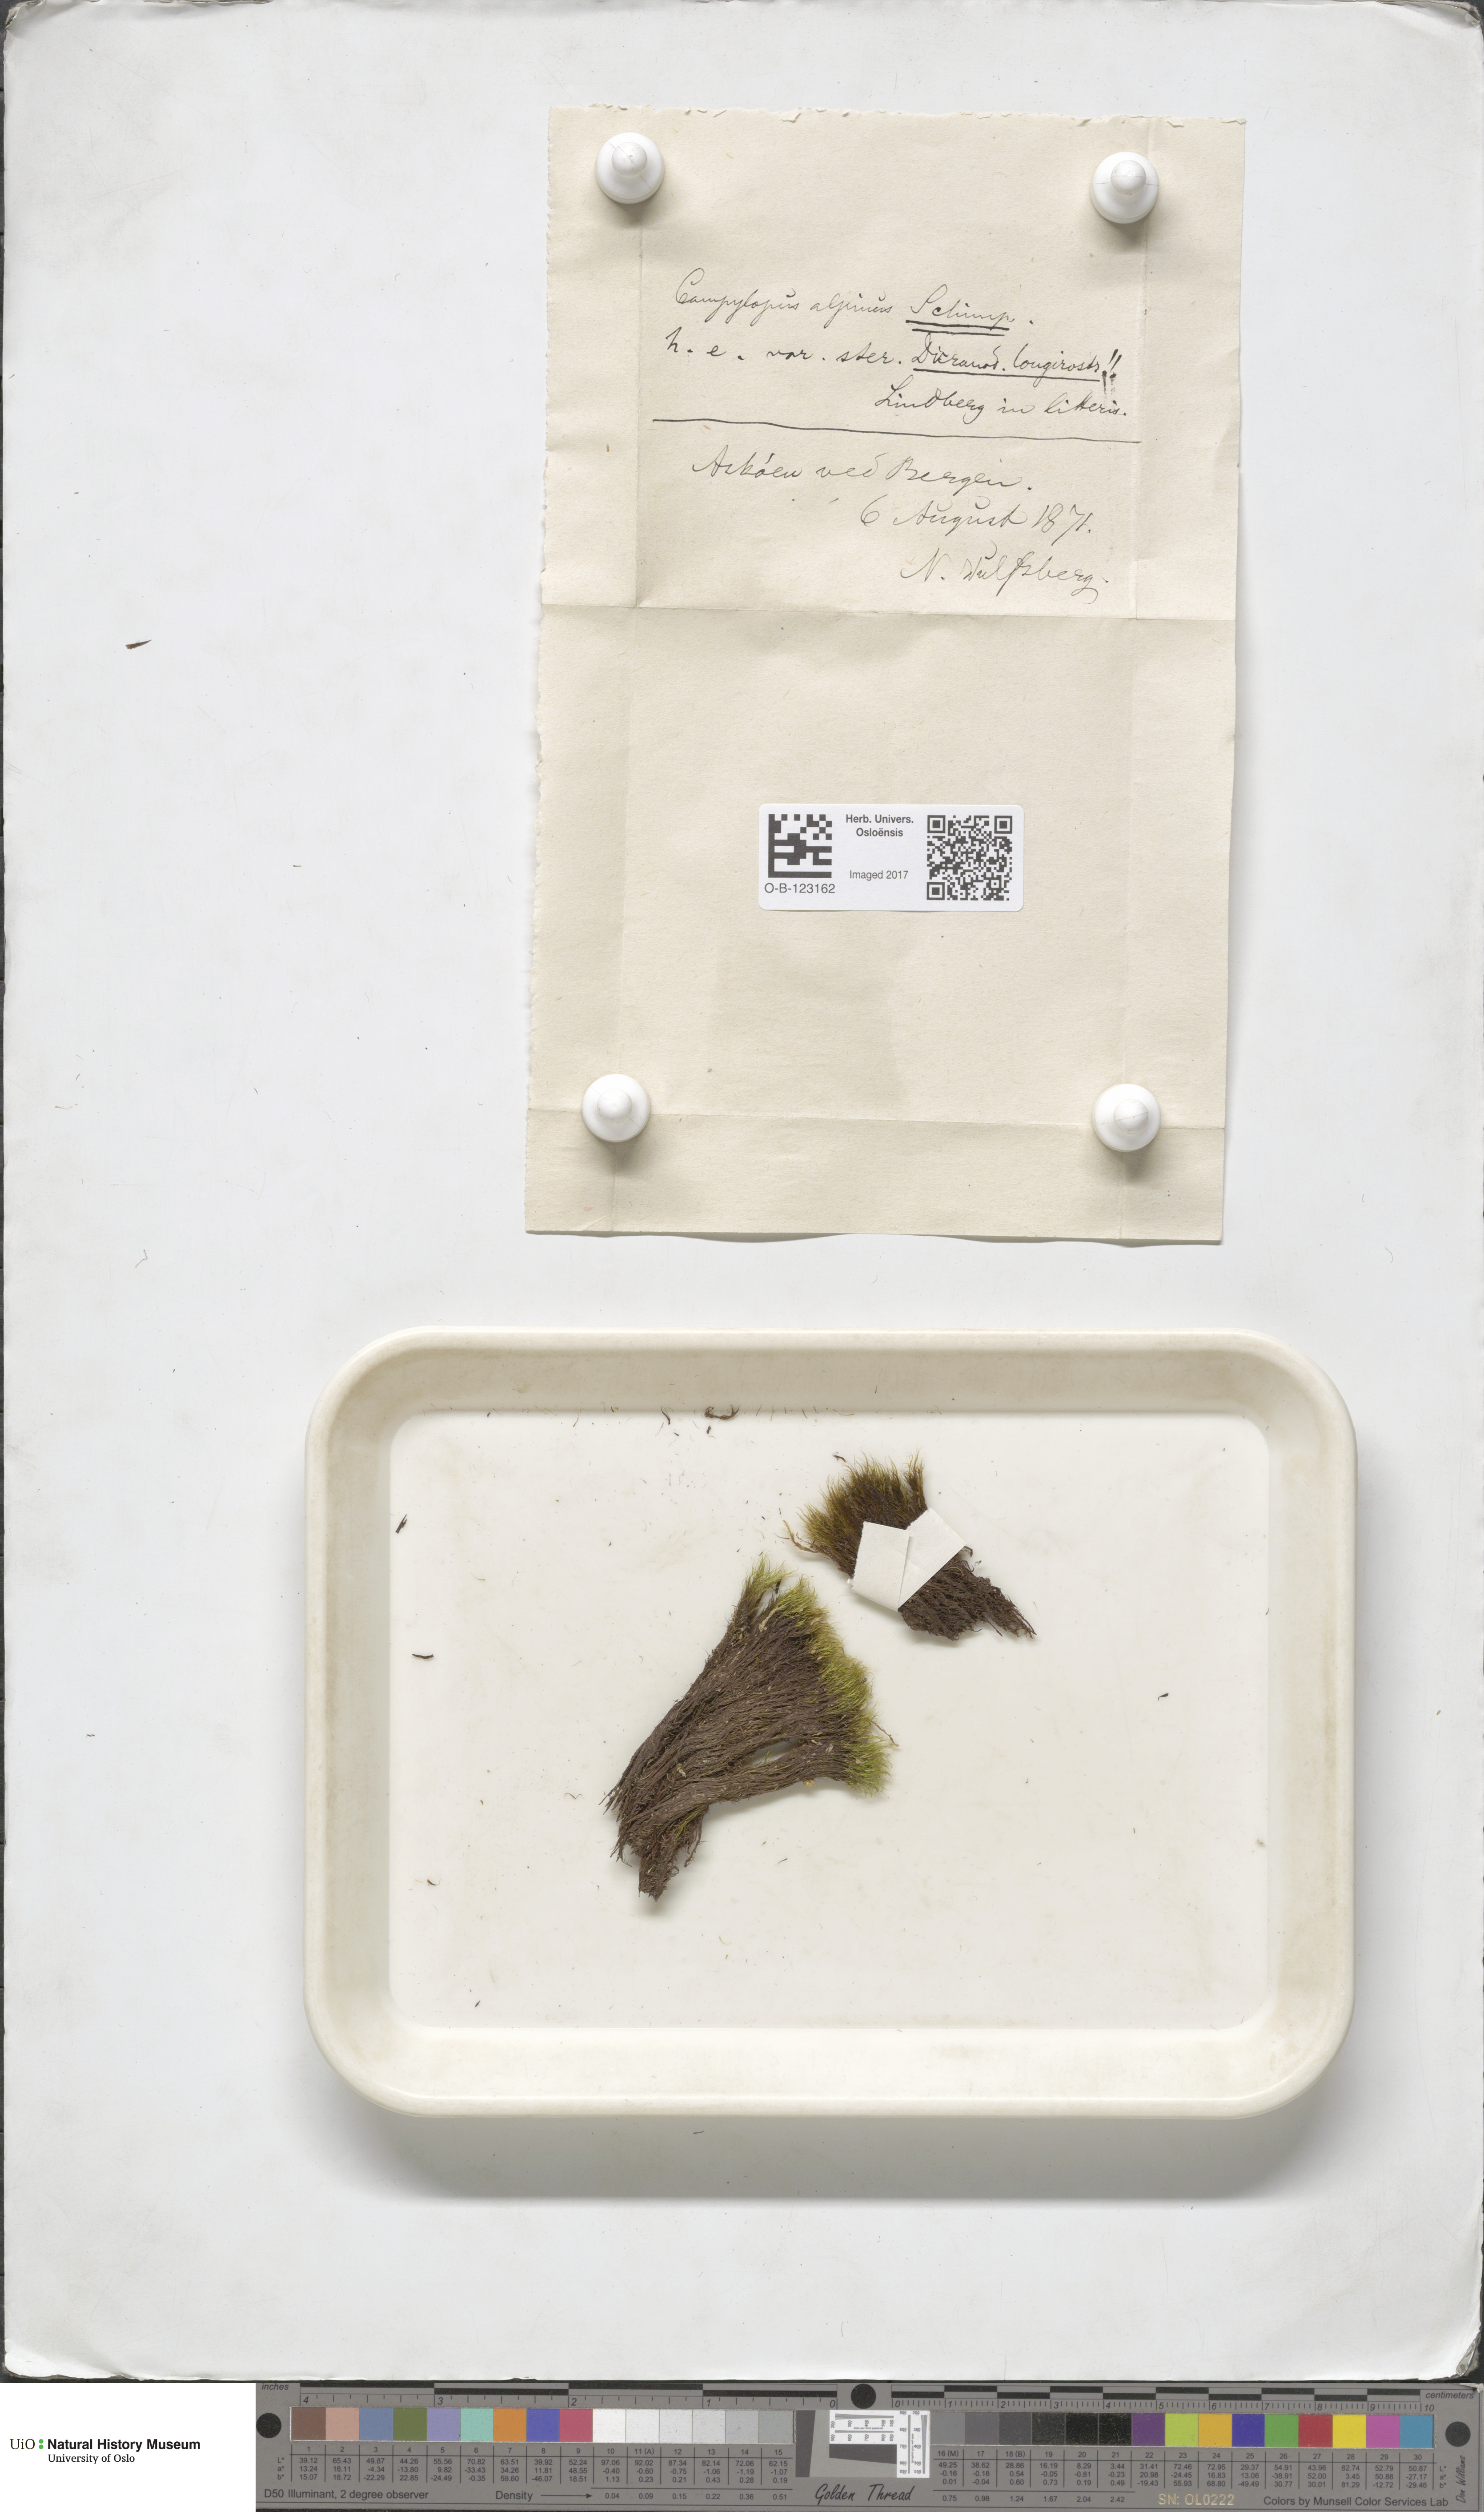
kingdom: Plantae
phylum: Bryophyta
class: Bryopsida
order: Dicranales
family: Leucobryaceae
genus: Dicranodontium
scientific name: Dicranodontium denudatum
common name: Beaked bow moss
